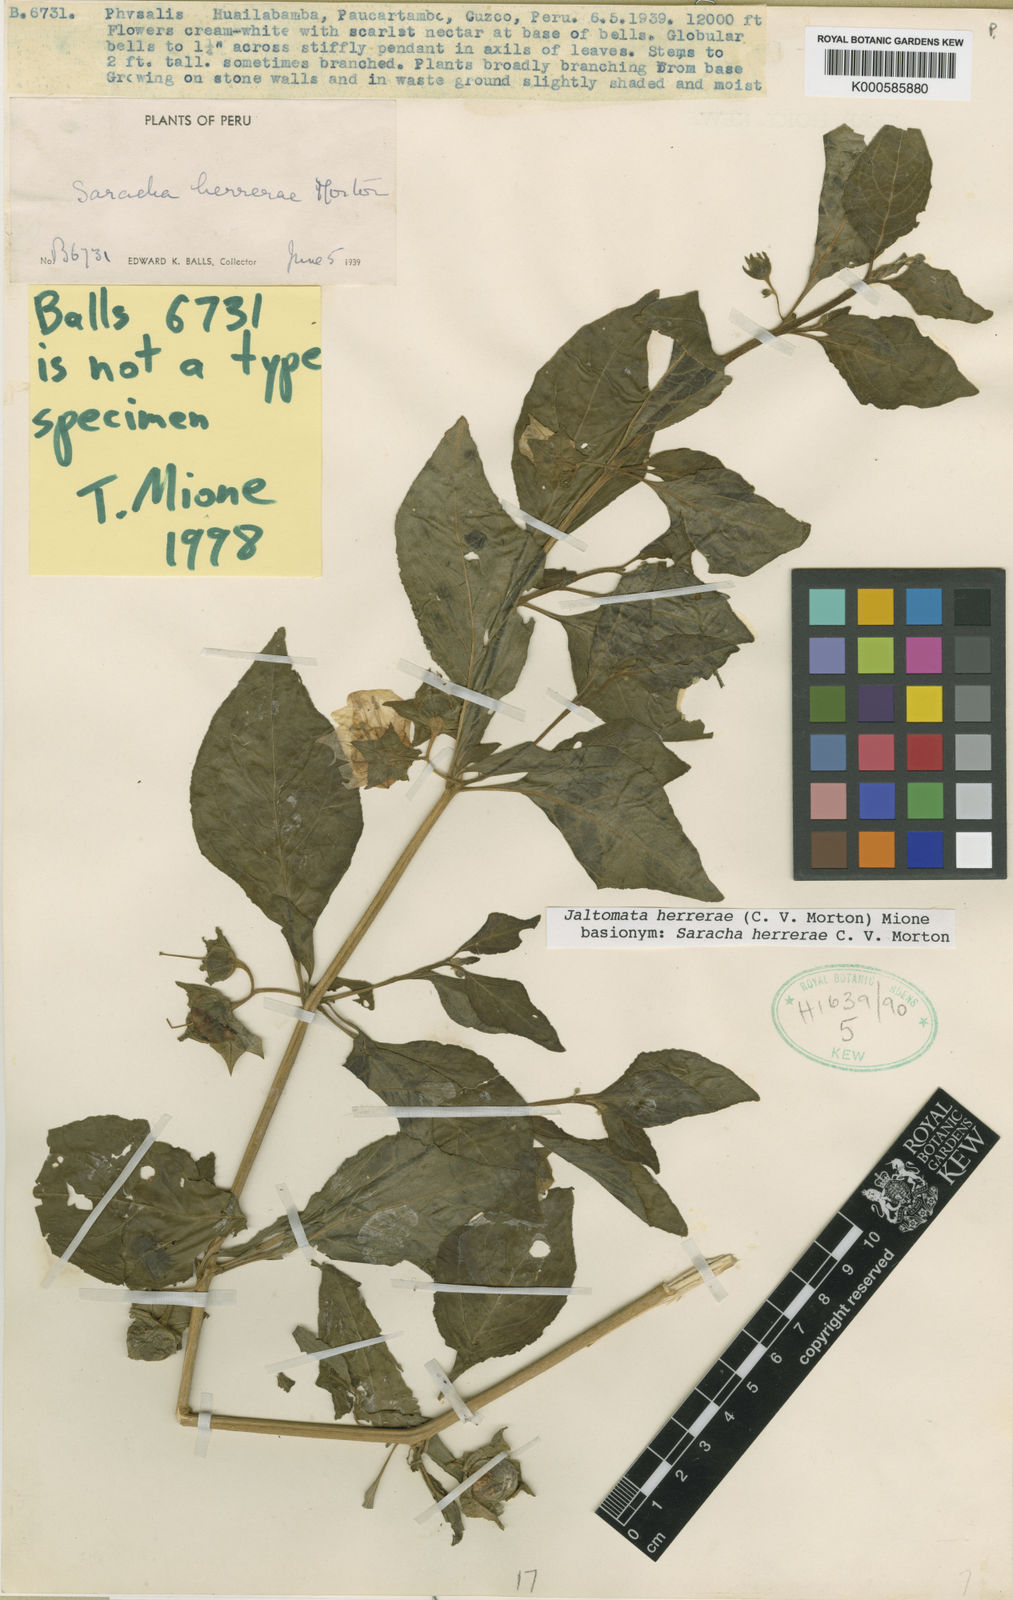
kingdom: Plantae
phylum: Tracheophyta
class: Magnoliopsida
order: Solanales
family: Solanaceae
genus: Jaltomata
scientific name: Jaltomata herrerae
